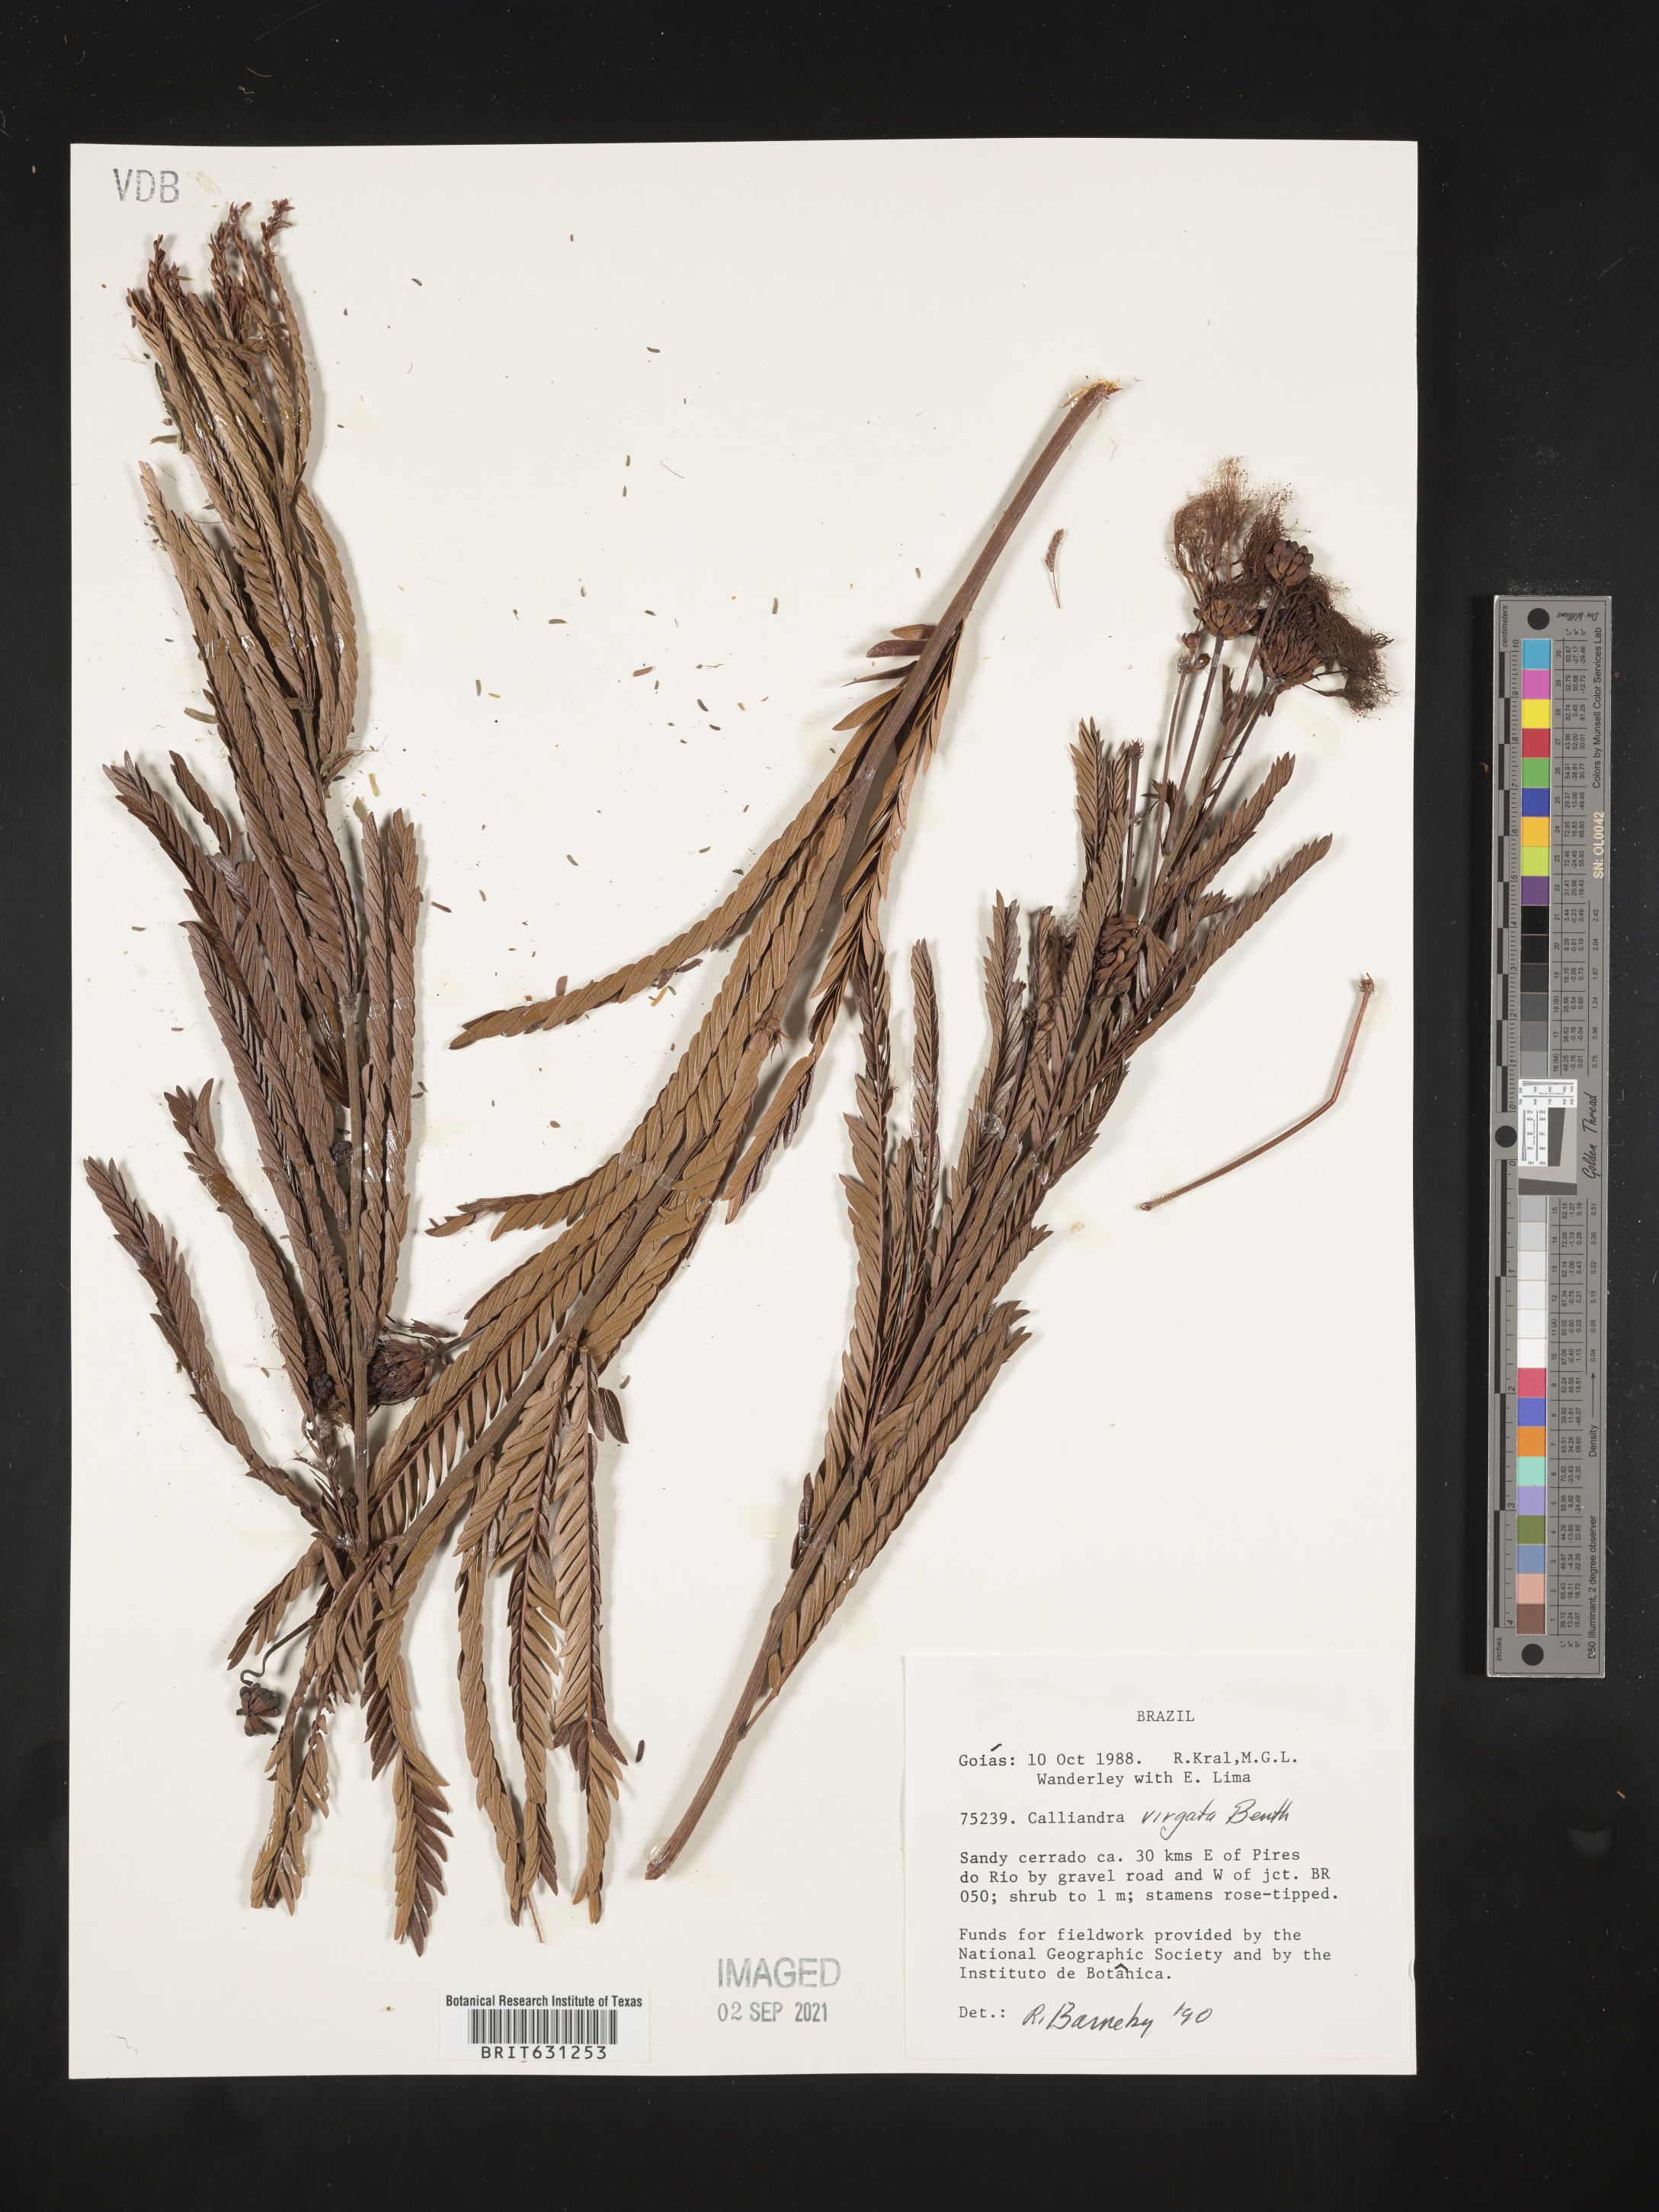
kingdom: Plantae
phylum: Tracheophyta
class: Magnoliopsida
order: Fabales
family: Fabaceae
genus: Calliandra
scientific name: Calliandra virgata
